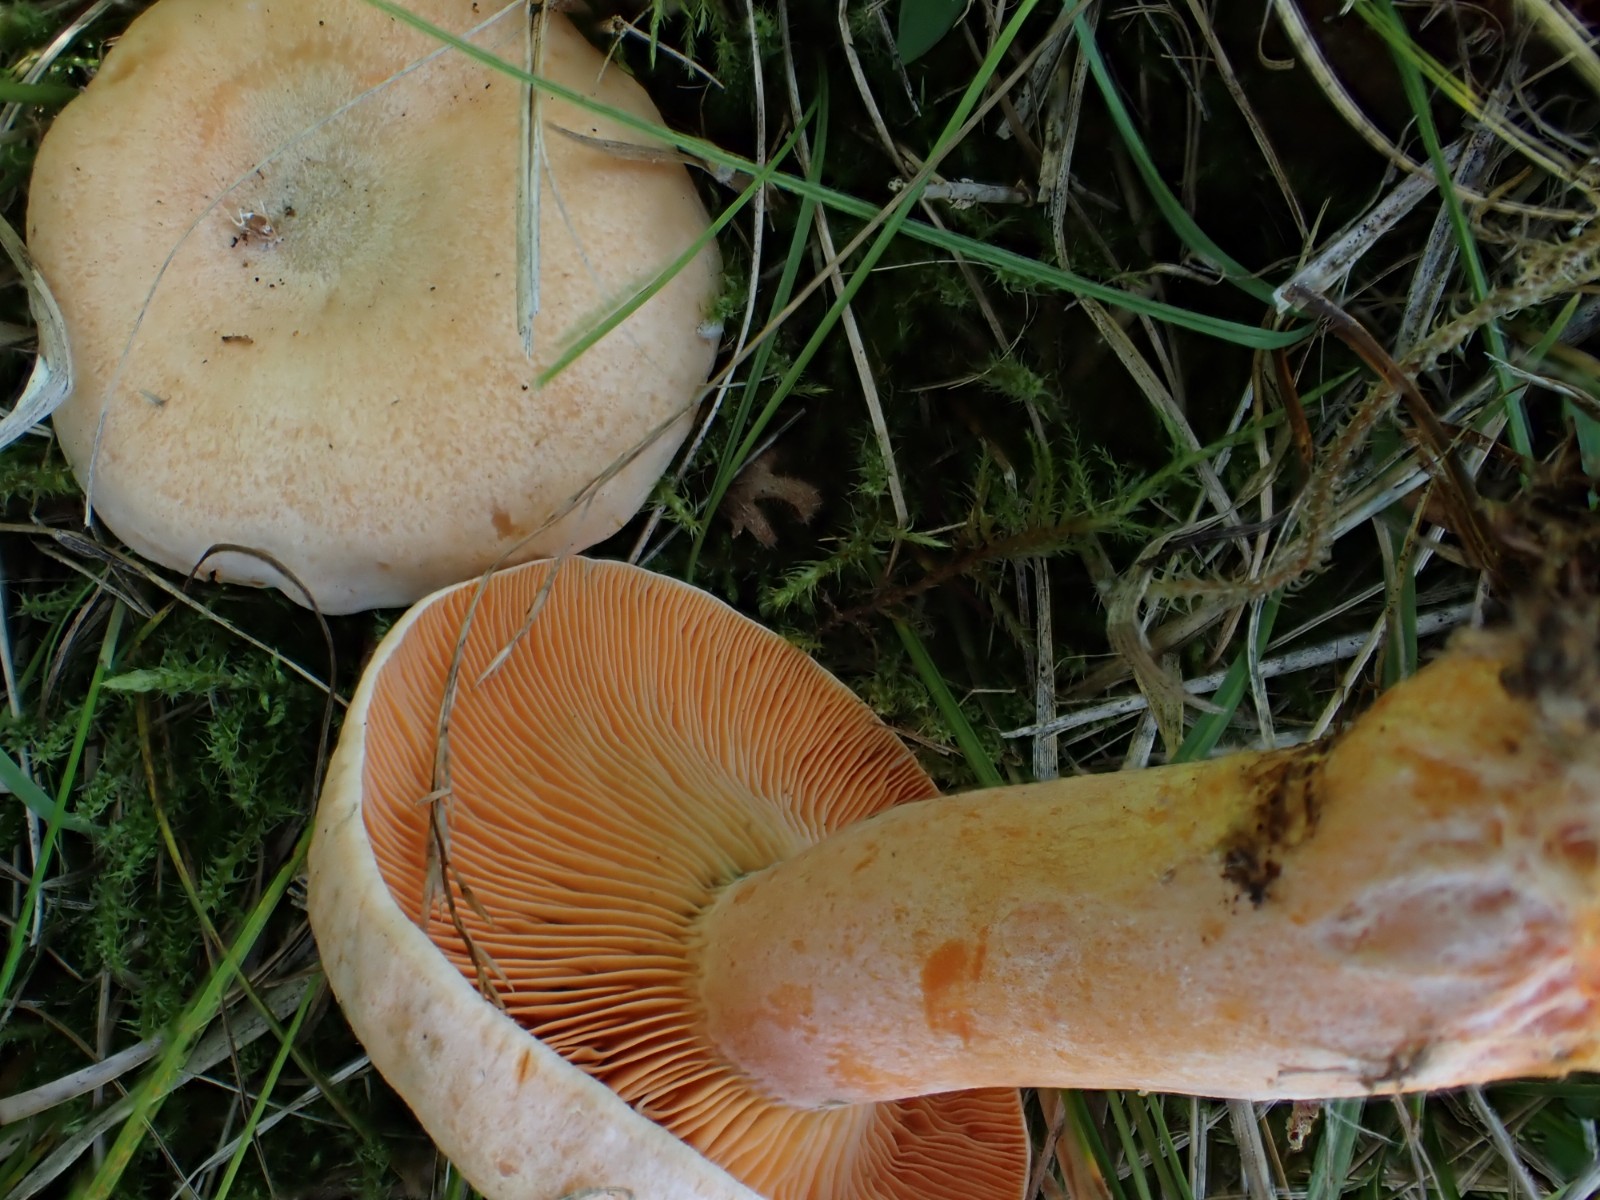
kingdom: Fungi
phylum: Basidiomycota
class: Agaricomycetes
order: Russulales
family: Russulaceae
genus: Lactarius
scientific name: Lactarius deterrimus
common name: gran-mælkehat
